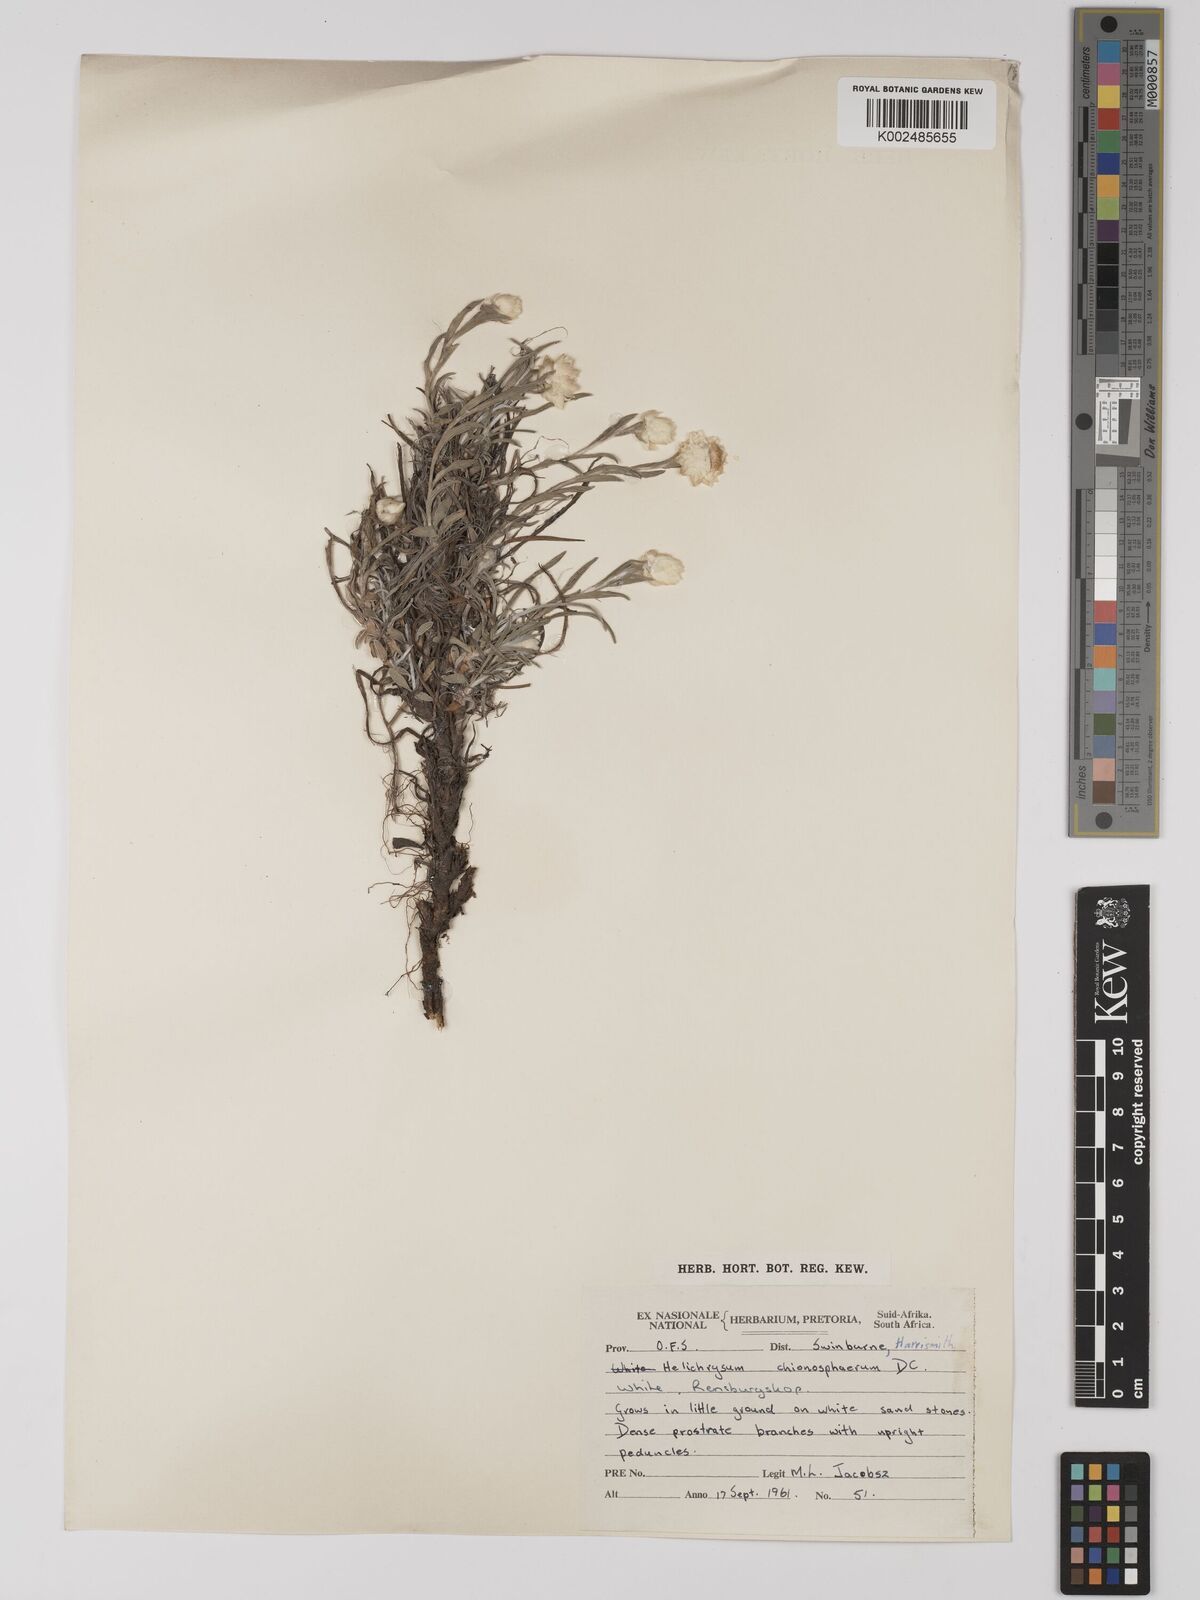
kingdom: Plantae
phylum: Tracheophyta
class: Magnoliopsida
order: Asterales
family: Asteraceae
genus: Helichrysum
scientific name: Helichrysum chionosphaerum
